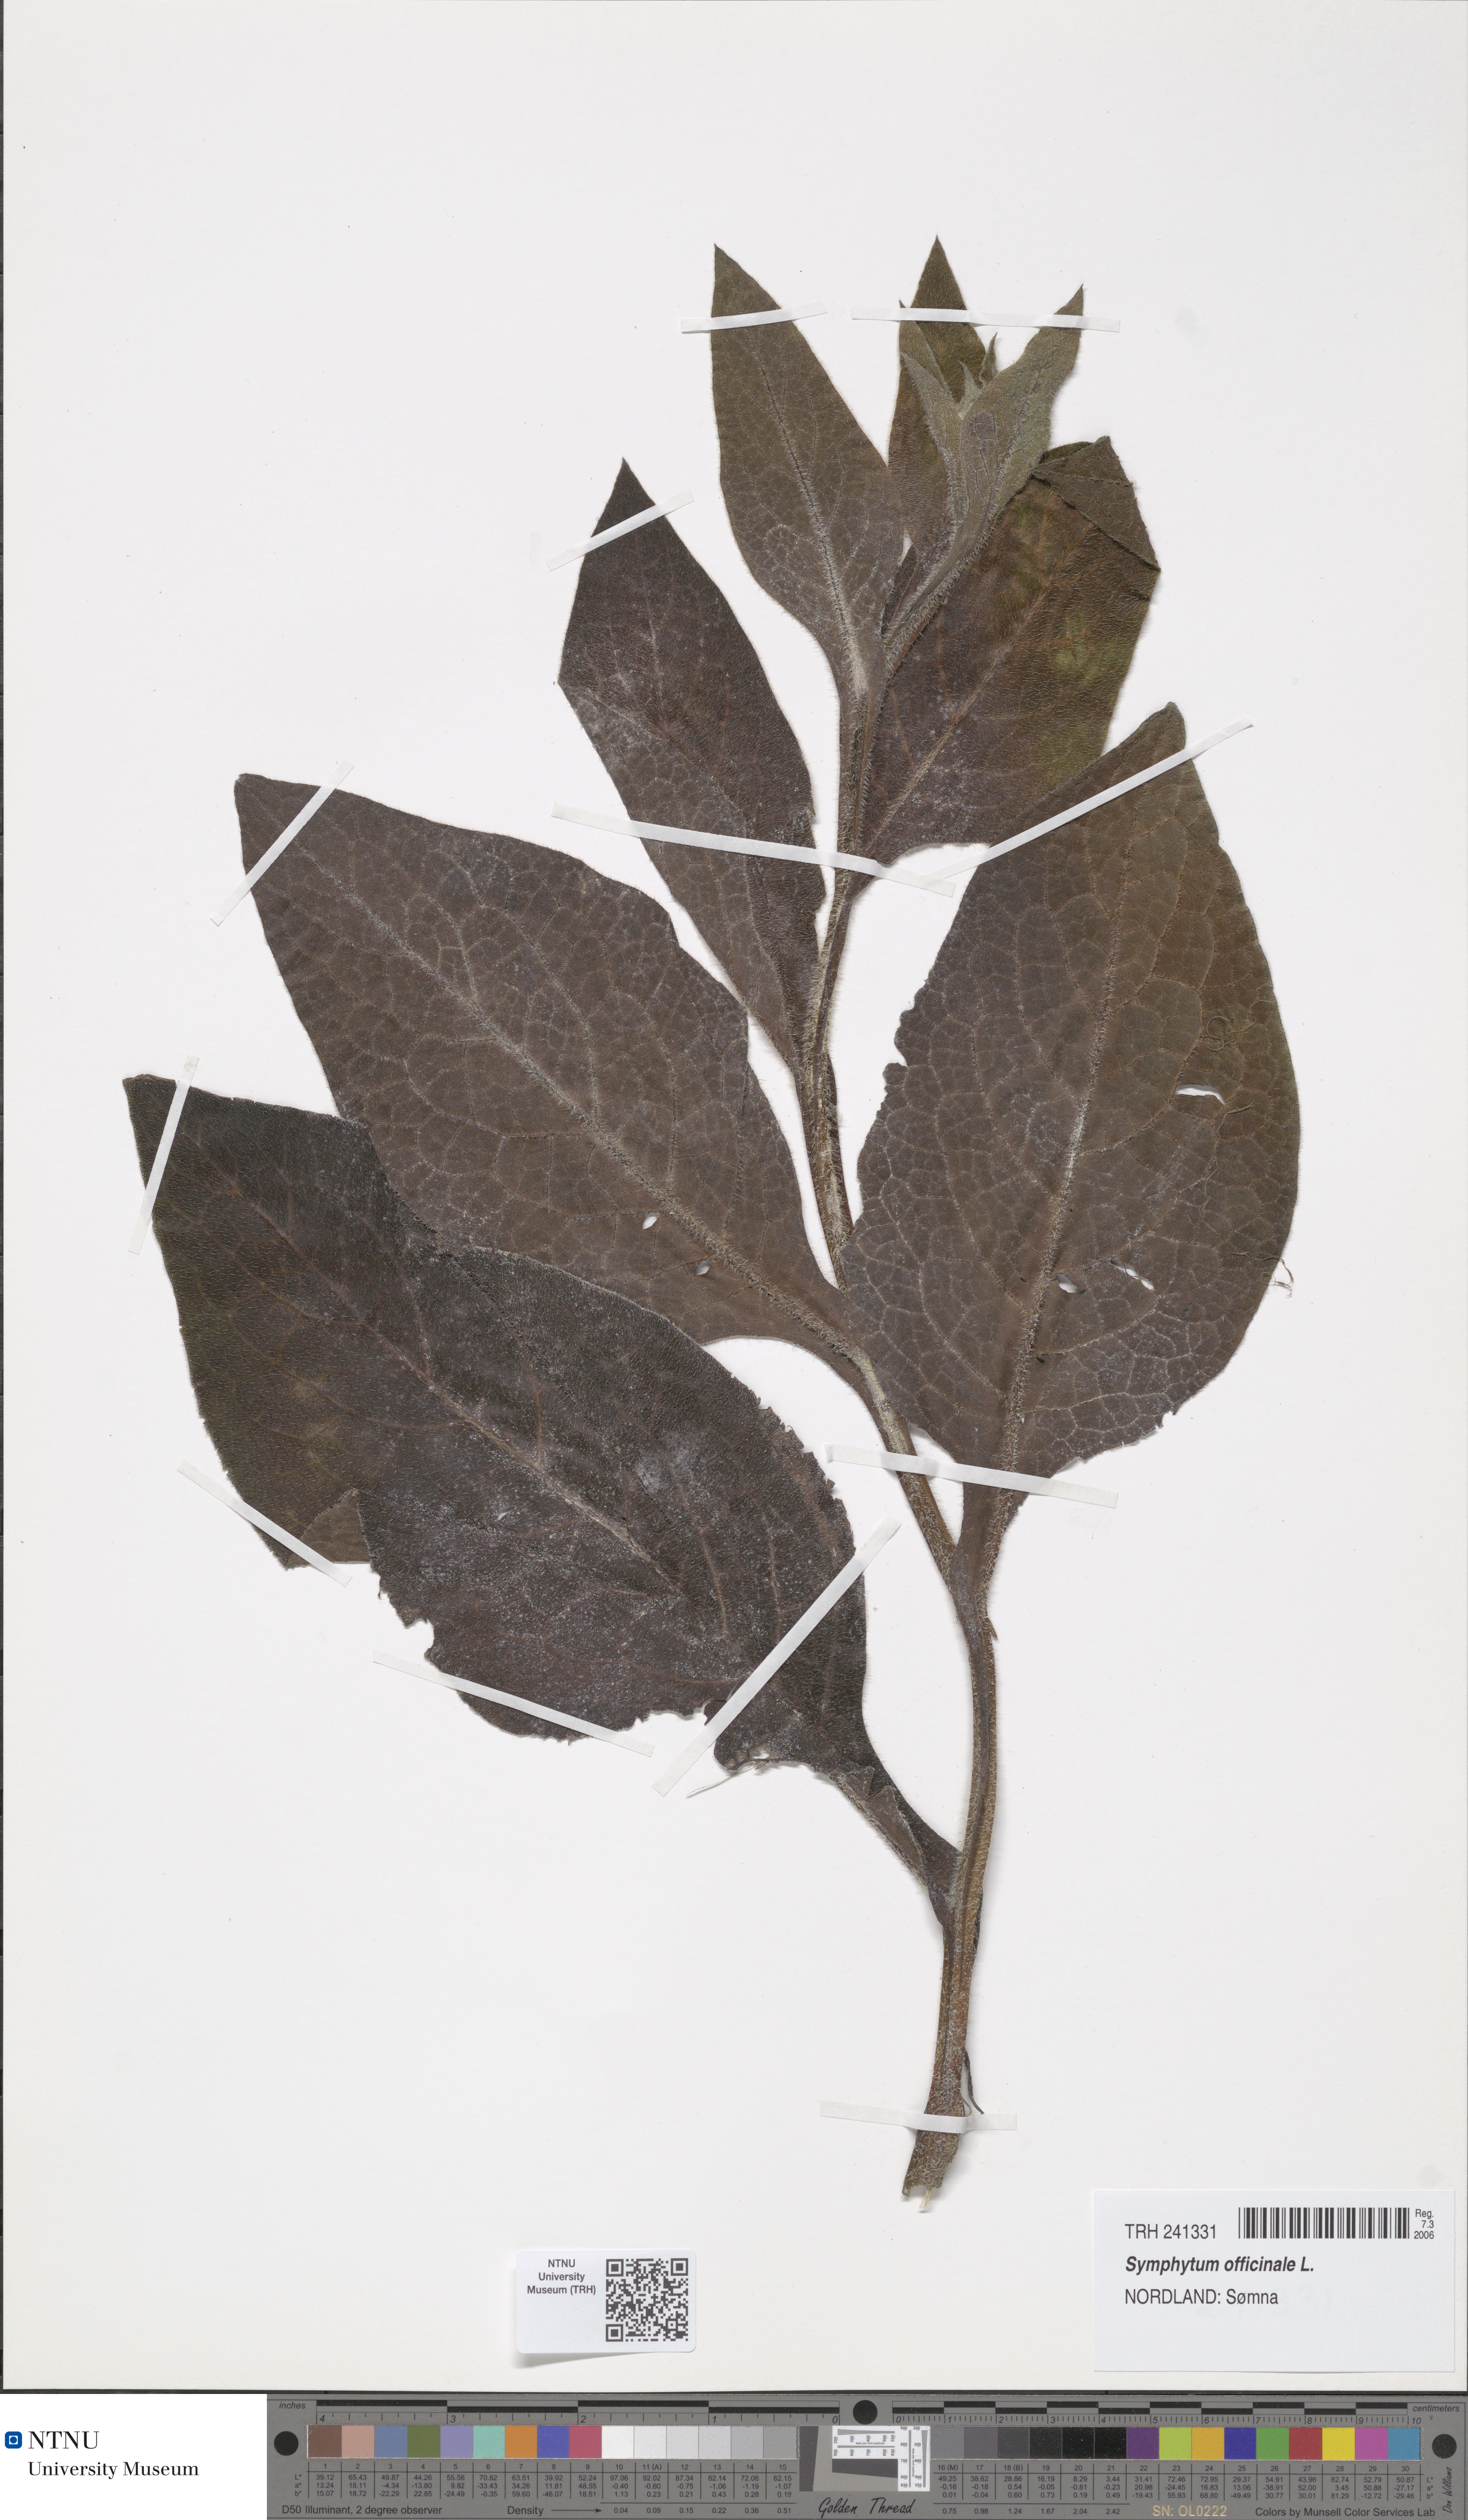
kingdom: Plantae
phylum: Tracheophyta
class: Magnoliopsida
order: Boraginales
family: Boraginaceae
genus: Symphytum
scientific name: Symphytum officinale
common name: Common comfrey
